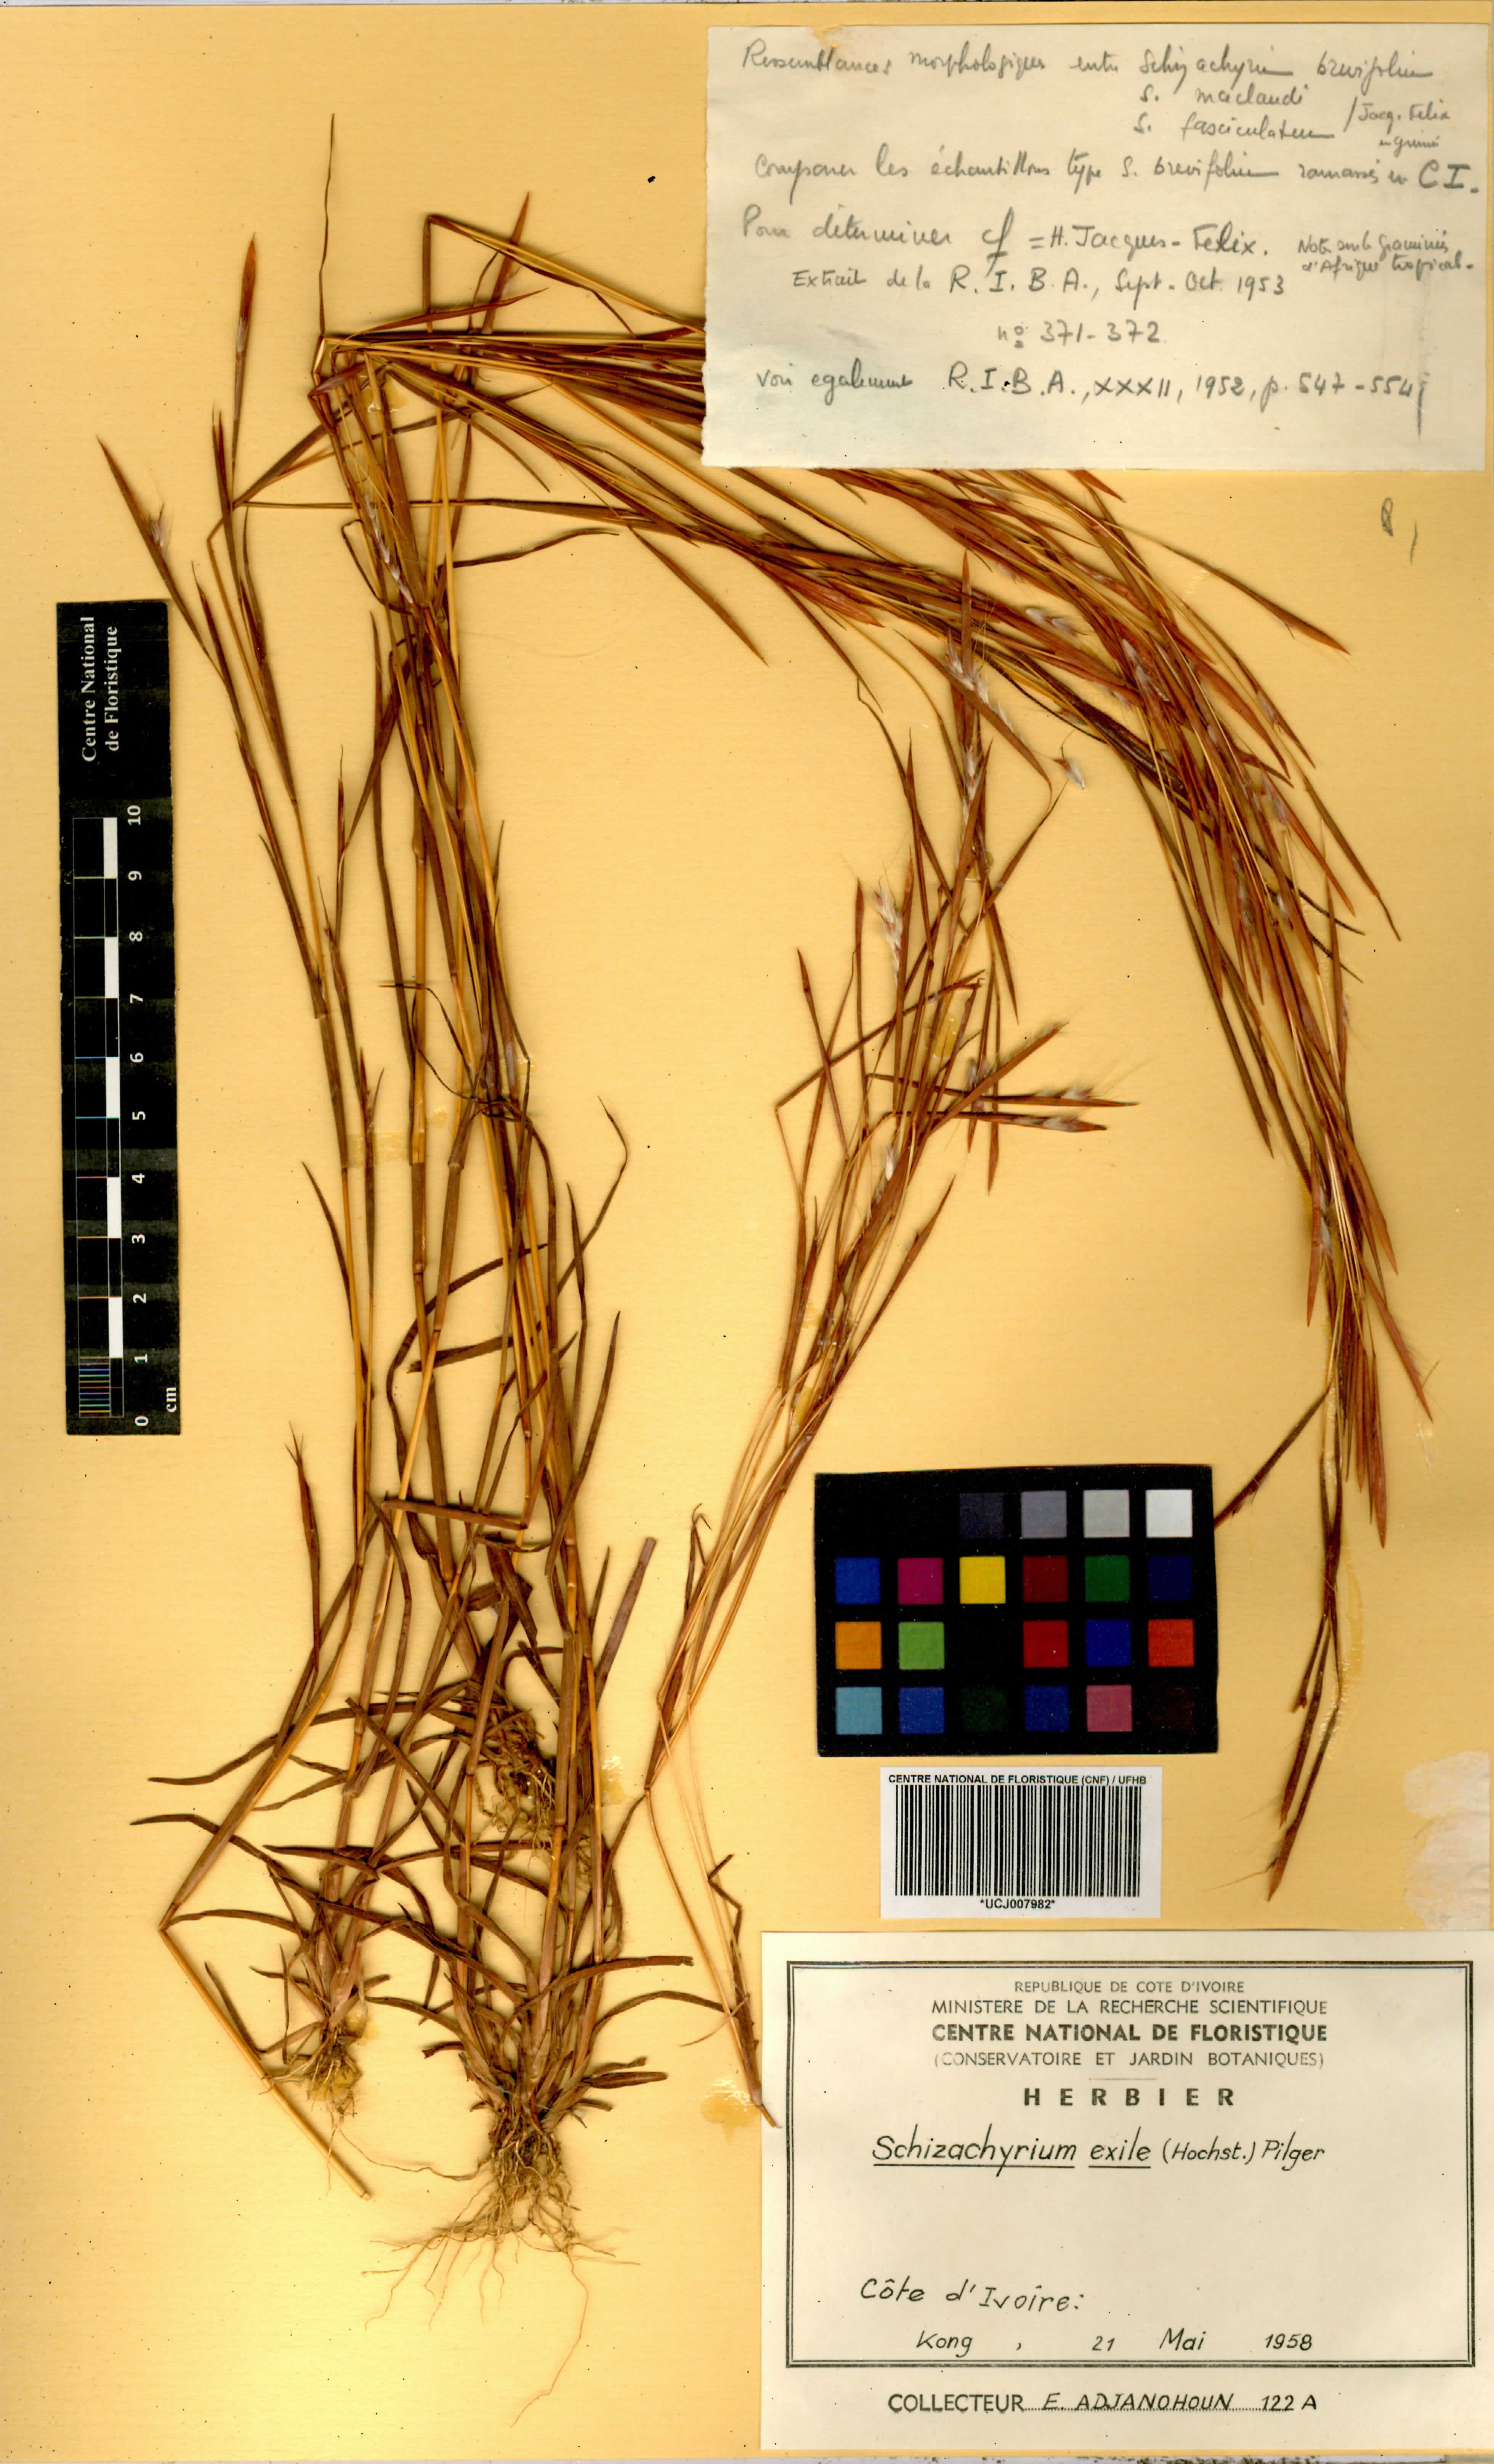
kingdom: Plantae
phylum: Tracheophyta
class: Liliopsida
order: Poales
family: Poaceae
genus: Schizachyrium
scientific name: Schizachyrium exile
